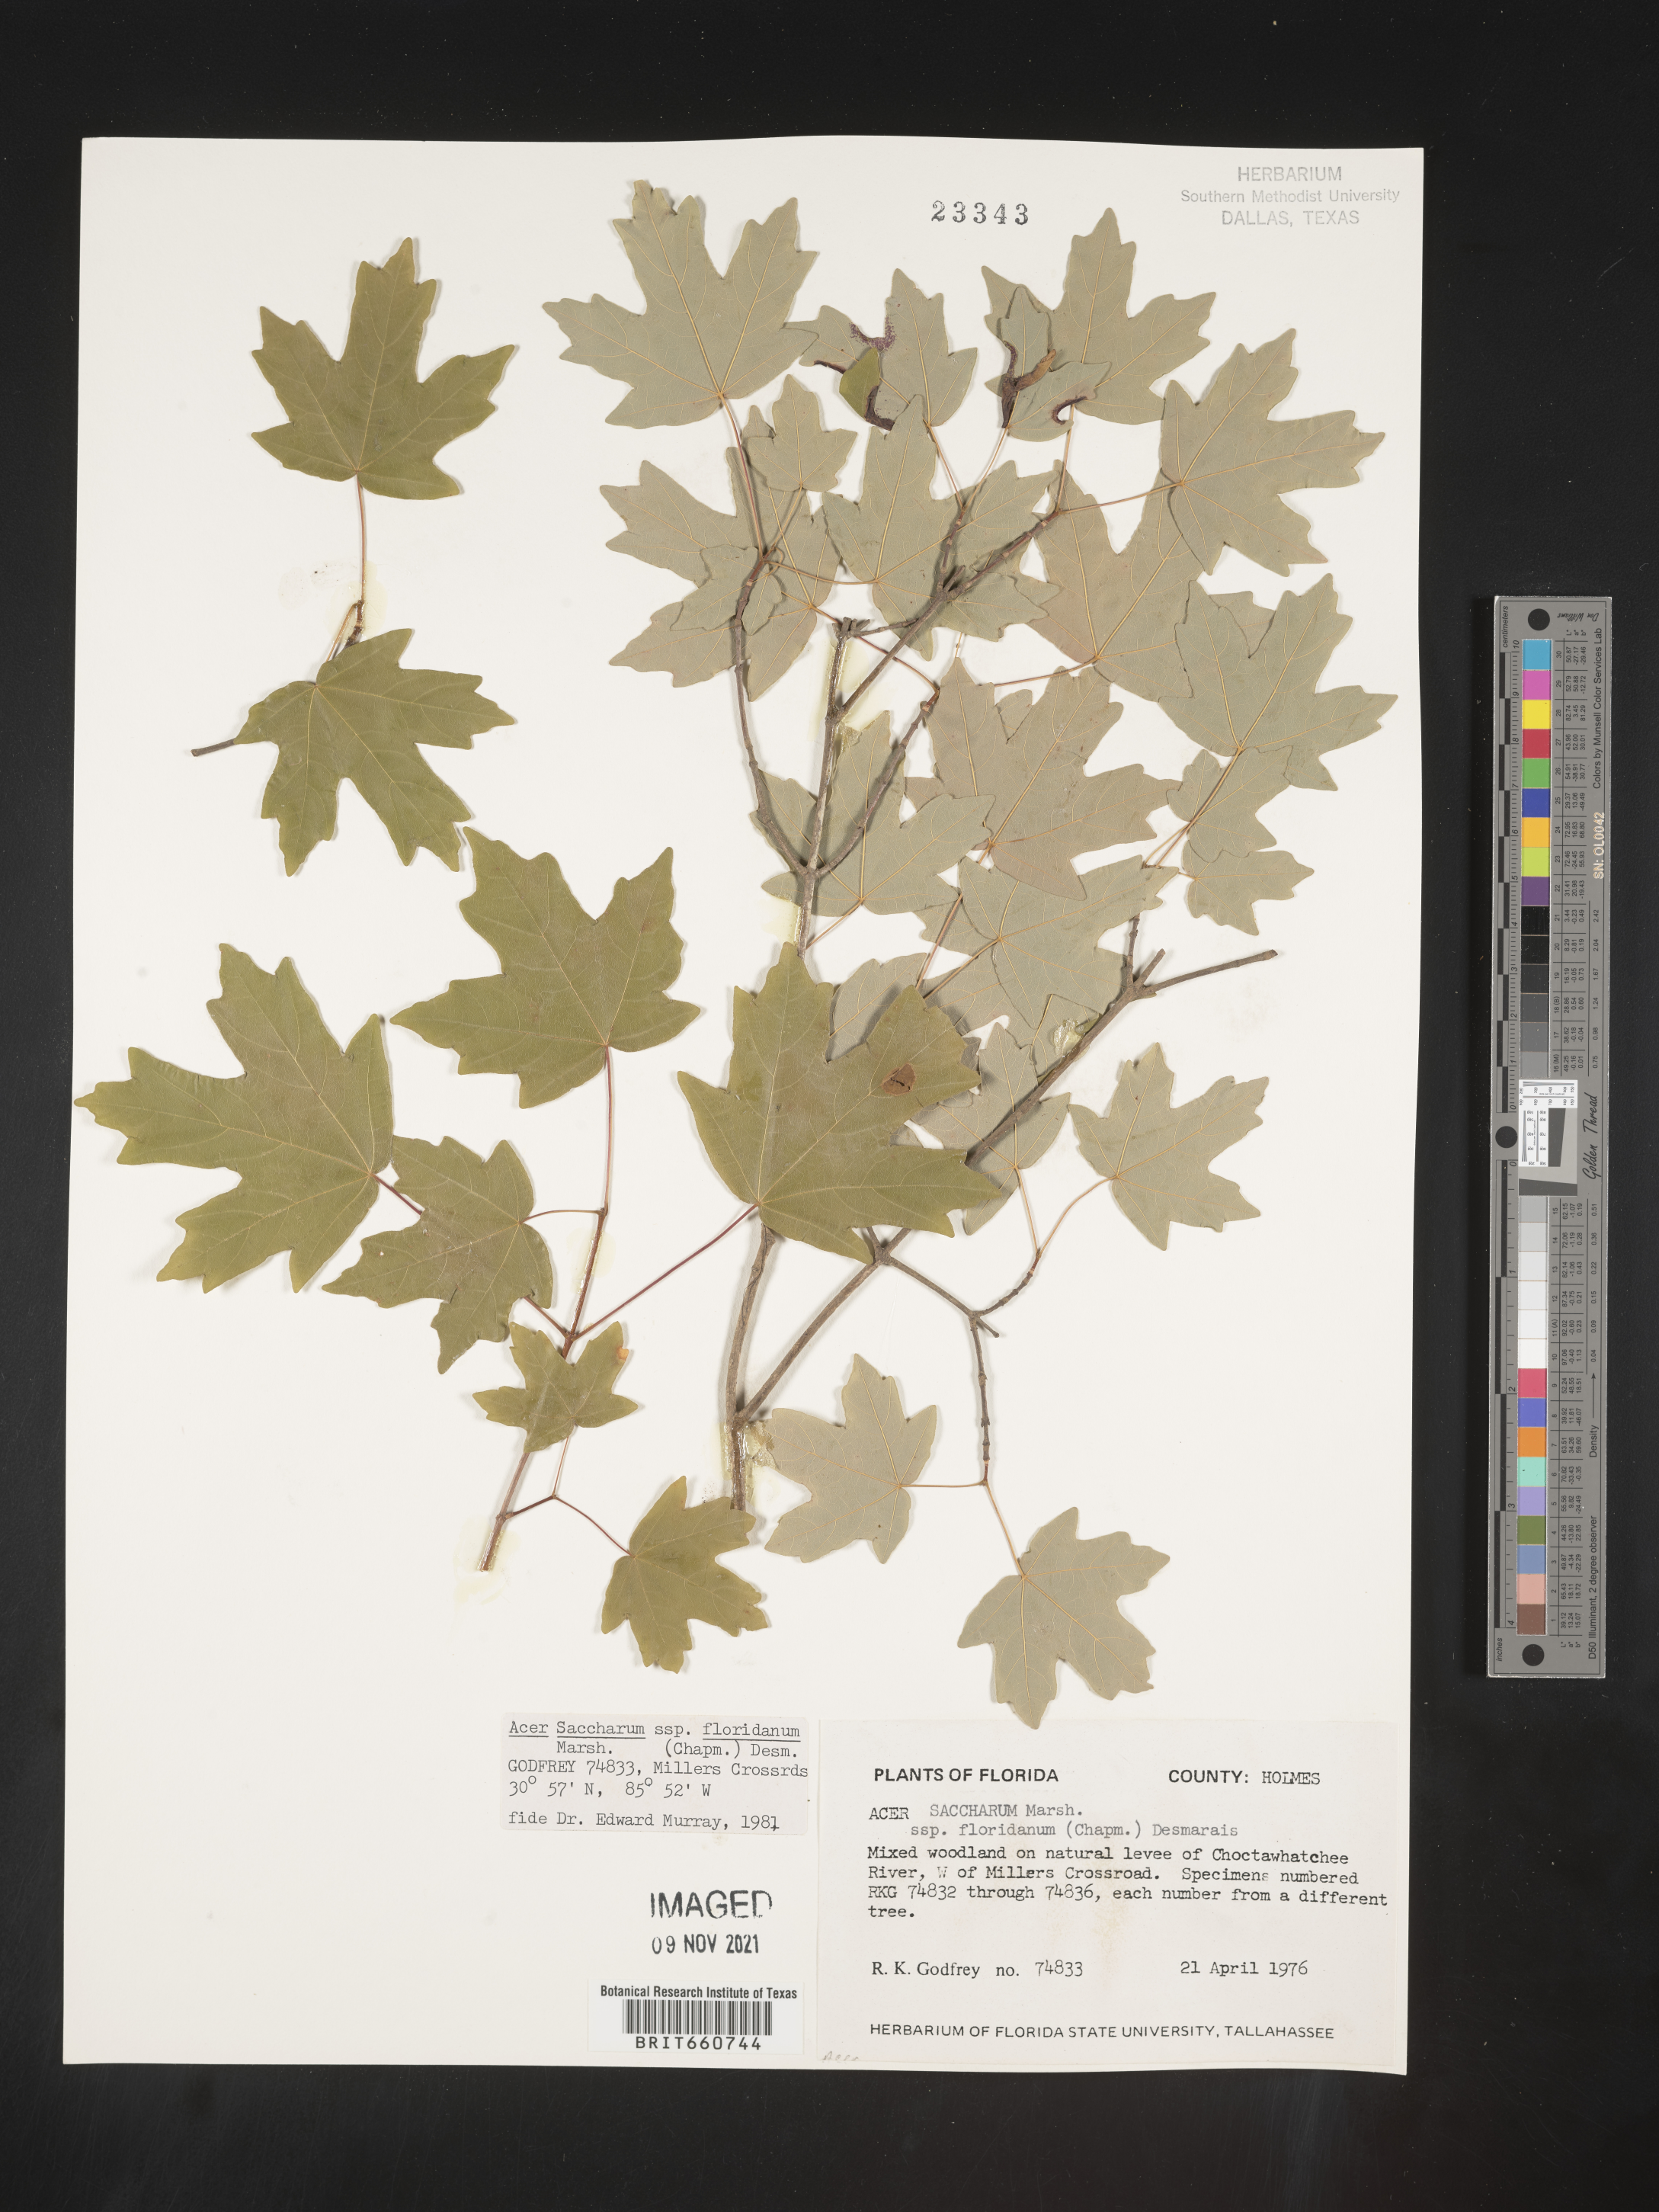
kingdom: Plantae
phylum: Tracheophyta
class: Magnoliopsida
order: Sapindales
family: Sapindaceae
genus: Acer
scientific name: Acer barbatum
